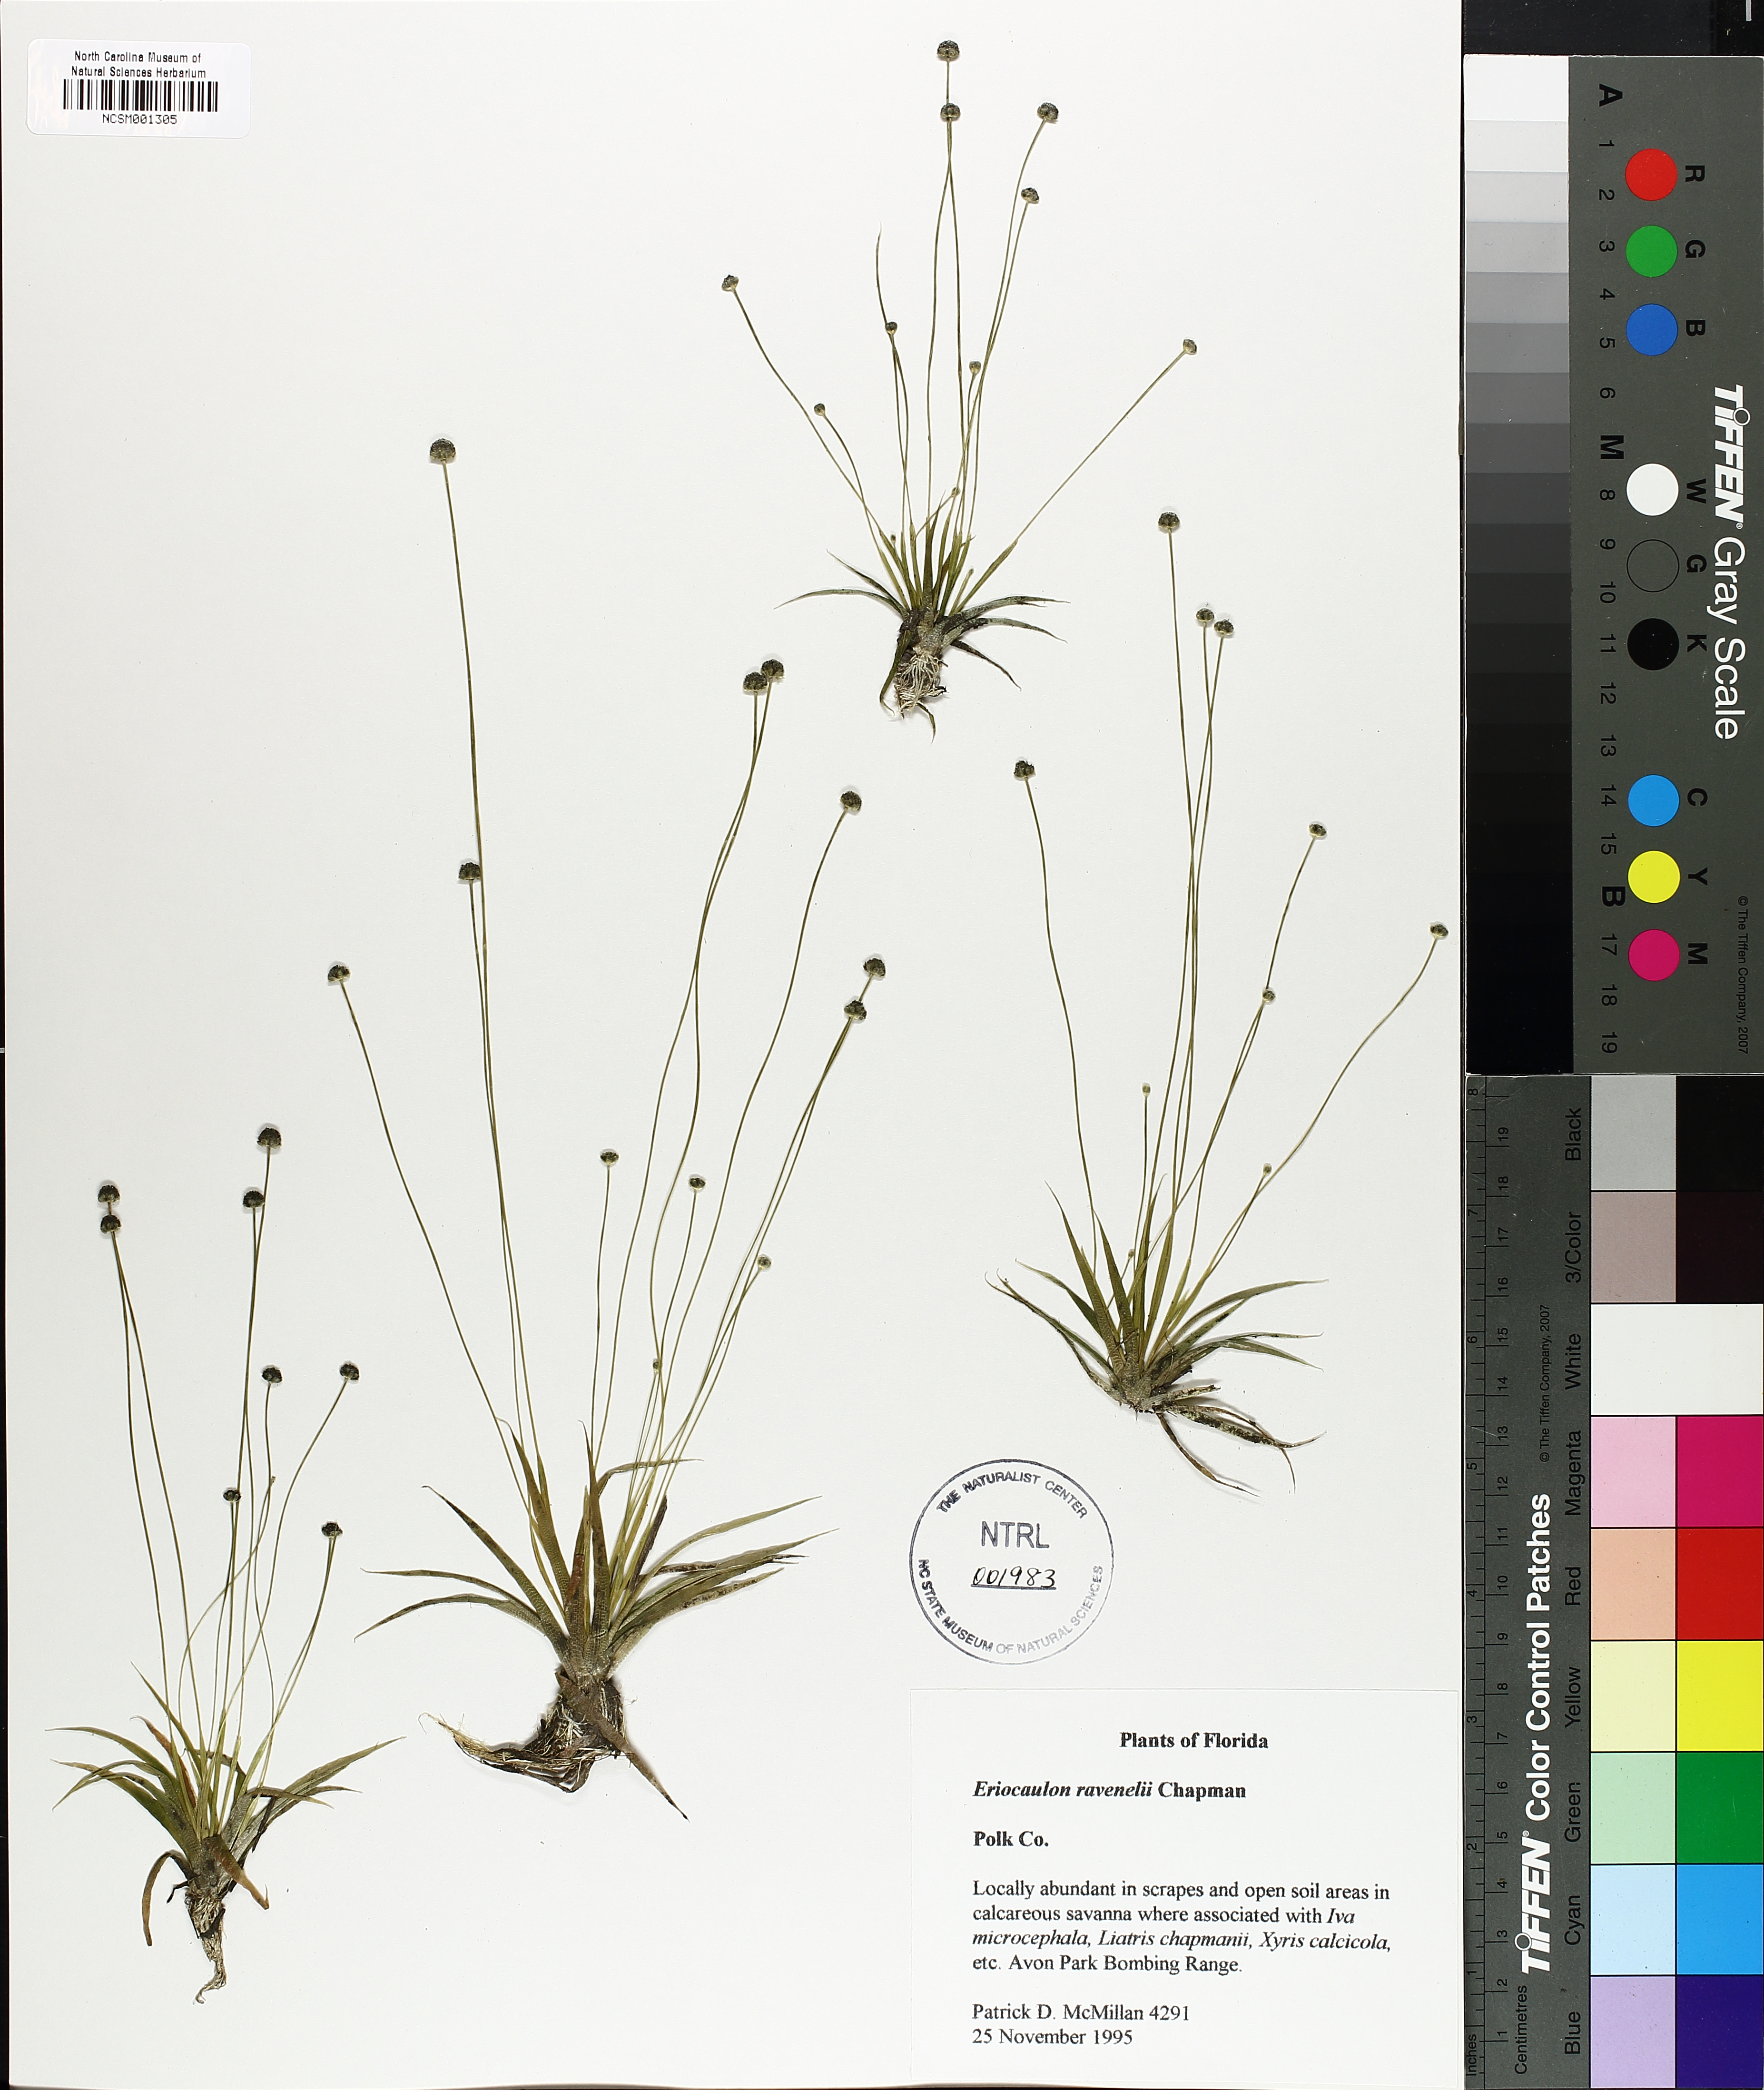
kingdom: Plantae
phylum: Tracheophyta
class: Liliopsida
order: Poales
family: Eriocaulaceae
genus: Eriocaulon
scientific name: Eriocaulon ravenelii
